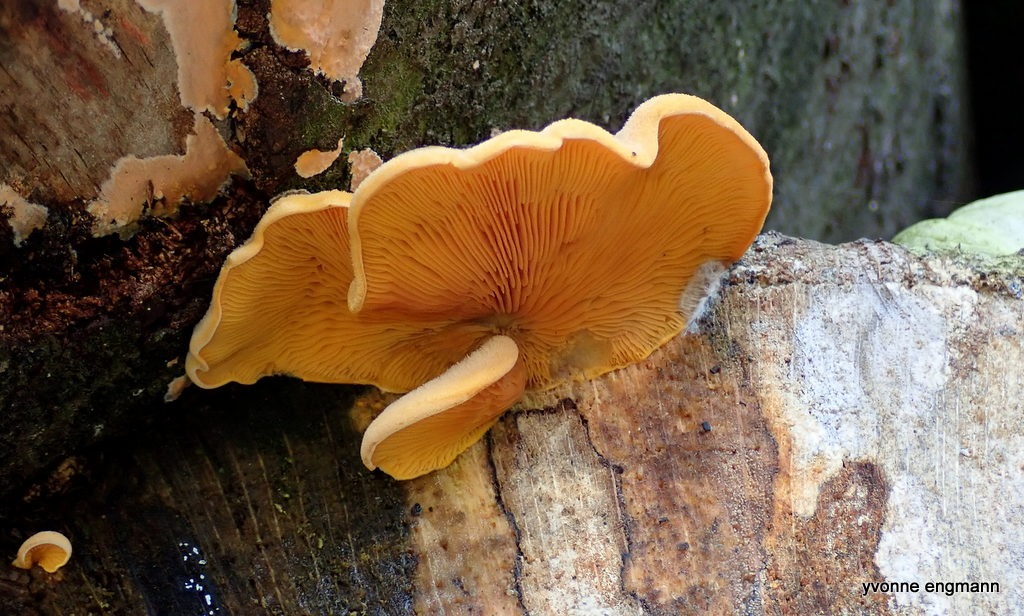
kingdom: Fungi
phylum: Basidiomycota
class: Agaricomycetes
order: Agaricales
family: Phyllotopsidaceae
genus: Phyllotopsis
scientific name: Phyllotopsis nidulans
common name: Okkerblad
